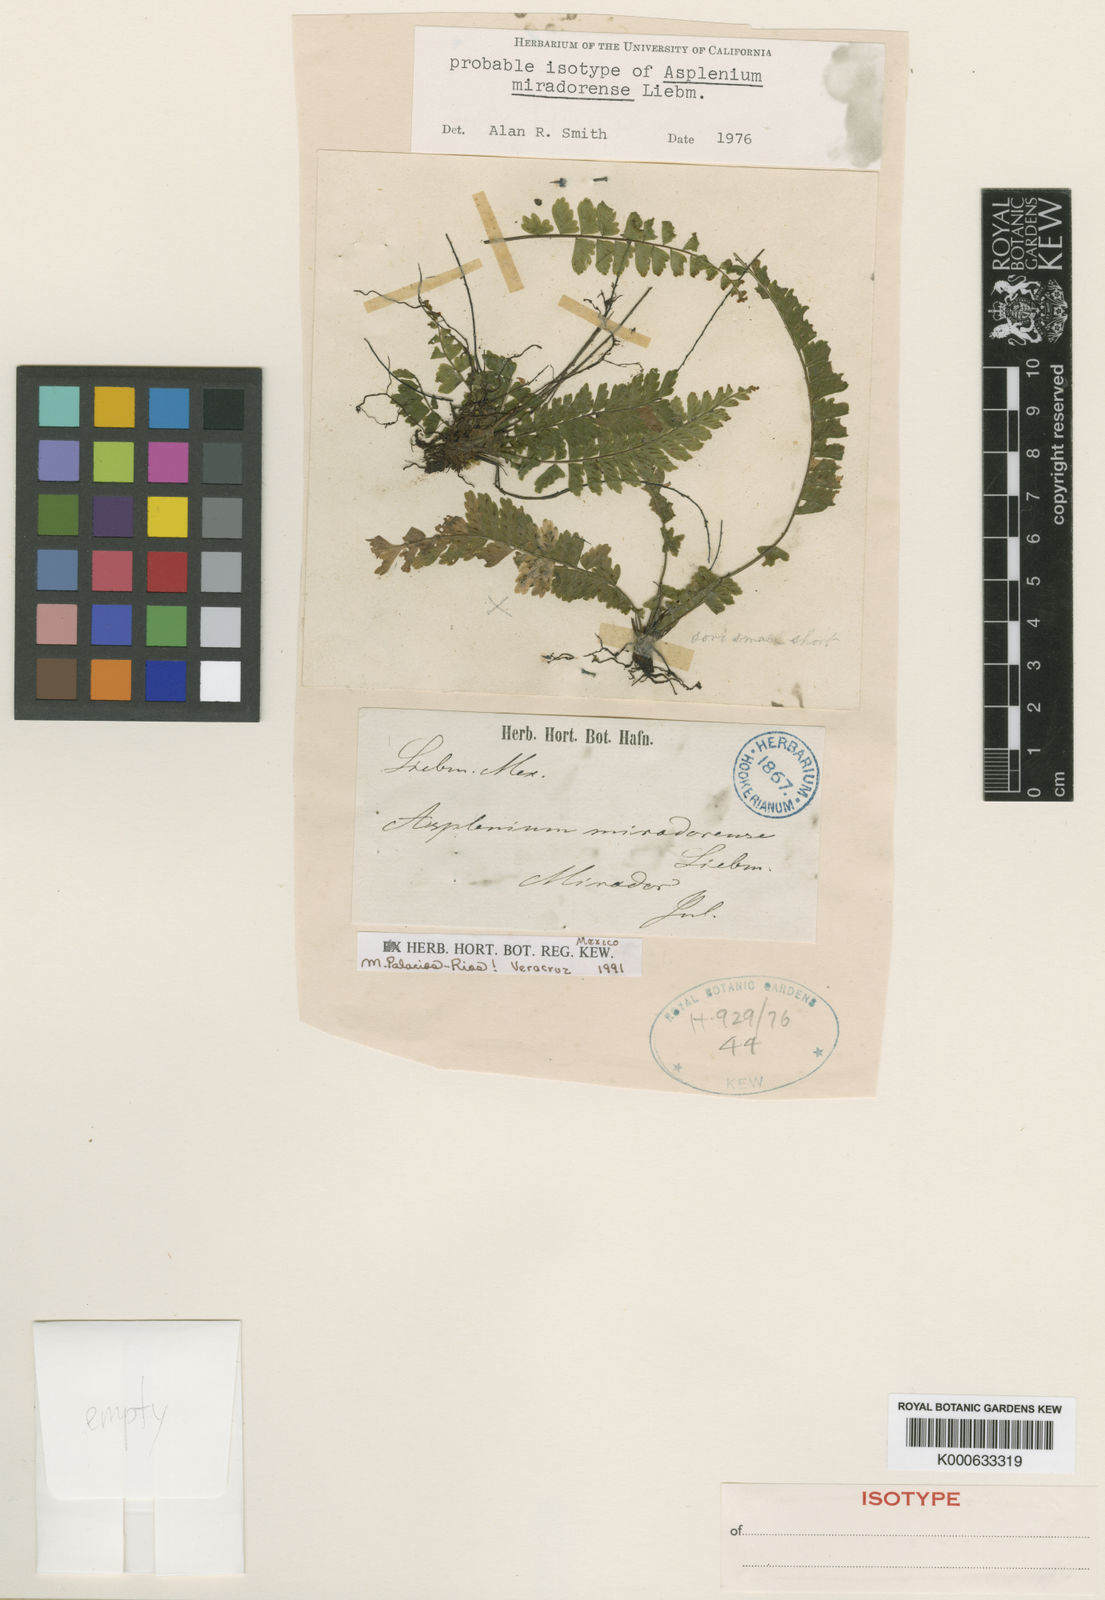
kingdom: Plantae
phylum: Tracheophyta
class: Polypodiopsida
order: Polypodiales
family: Aspleniaceae
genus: Asplenium
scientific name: Asplenium miradorense
